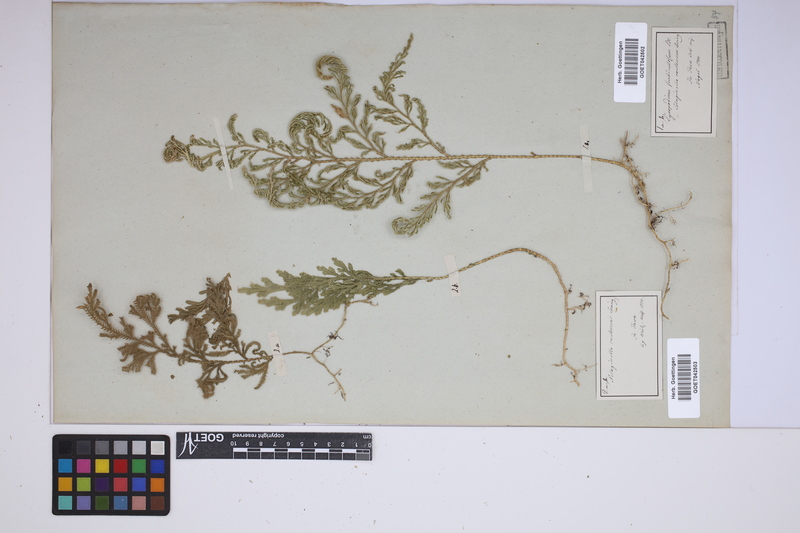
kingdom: Plantae
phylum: Tracheophyta
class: Lycopodiopsida
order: Selaginellales
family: Selaginellaceae
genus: Selaginella
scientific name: Selaginella involvens
